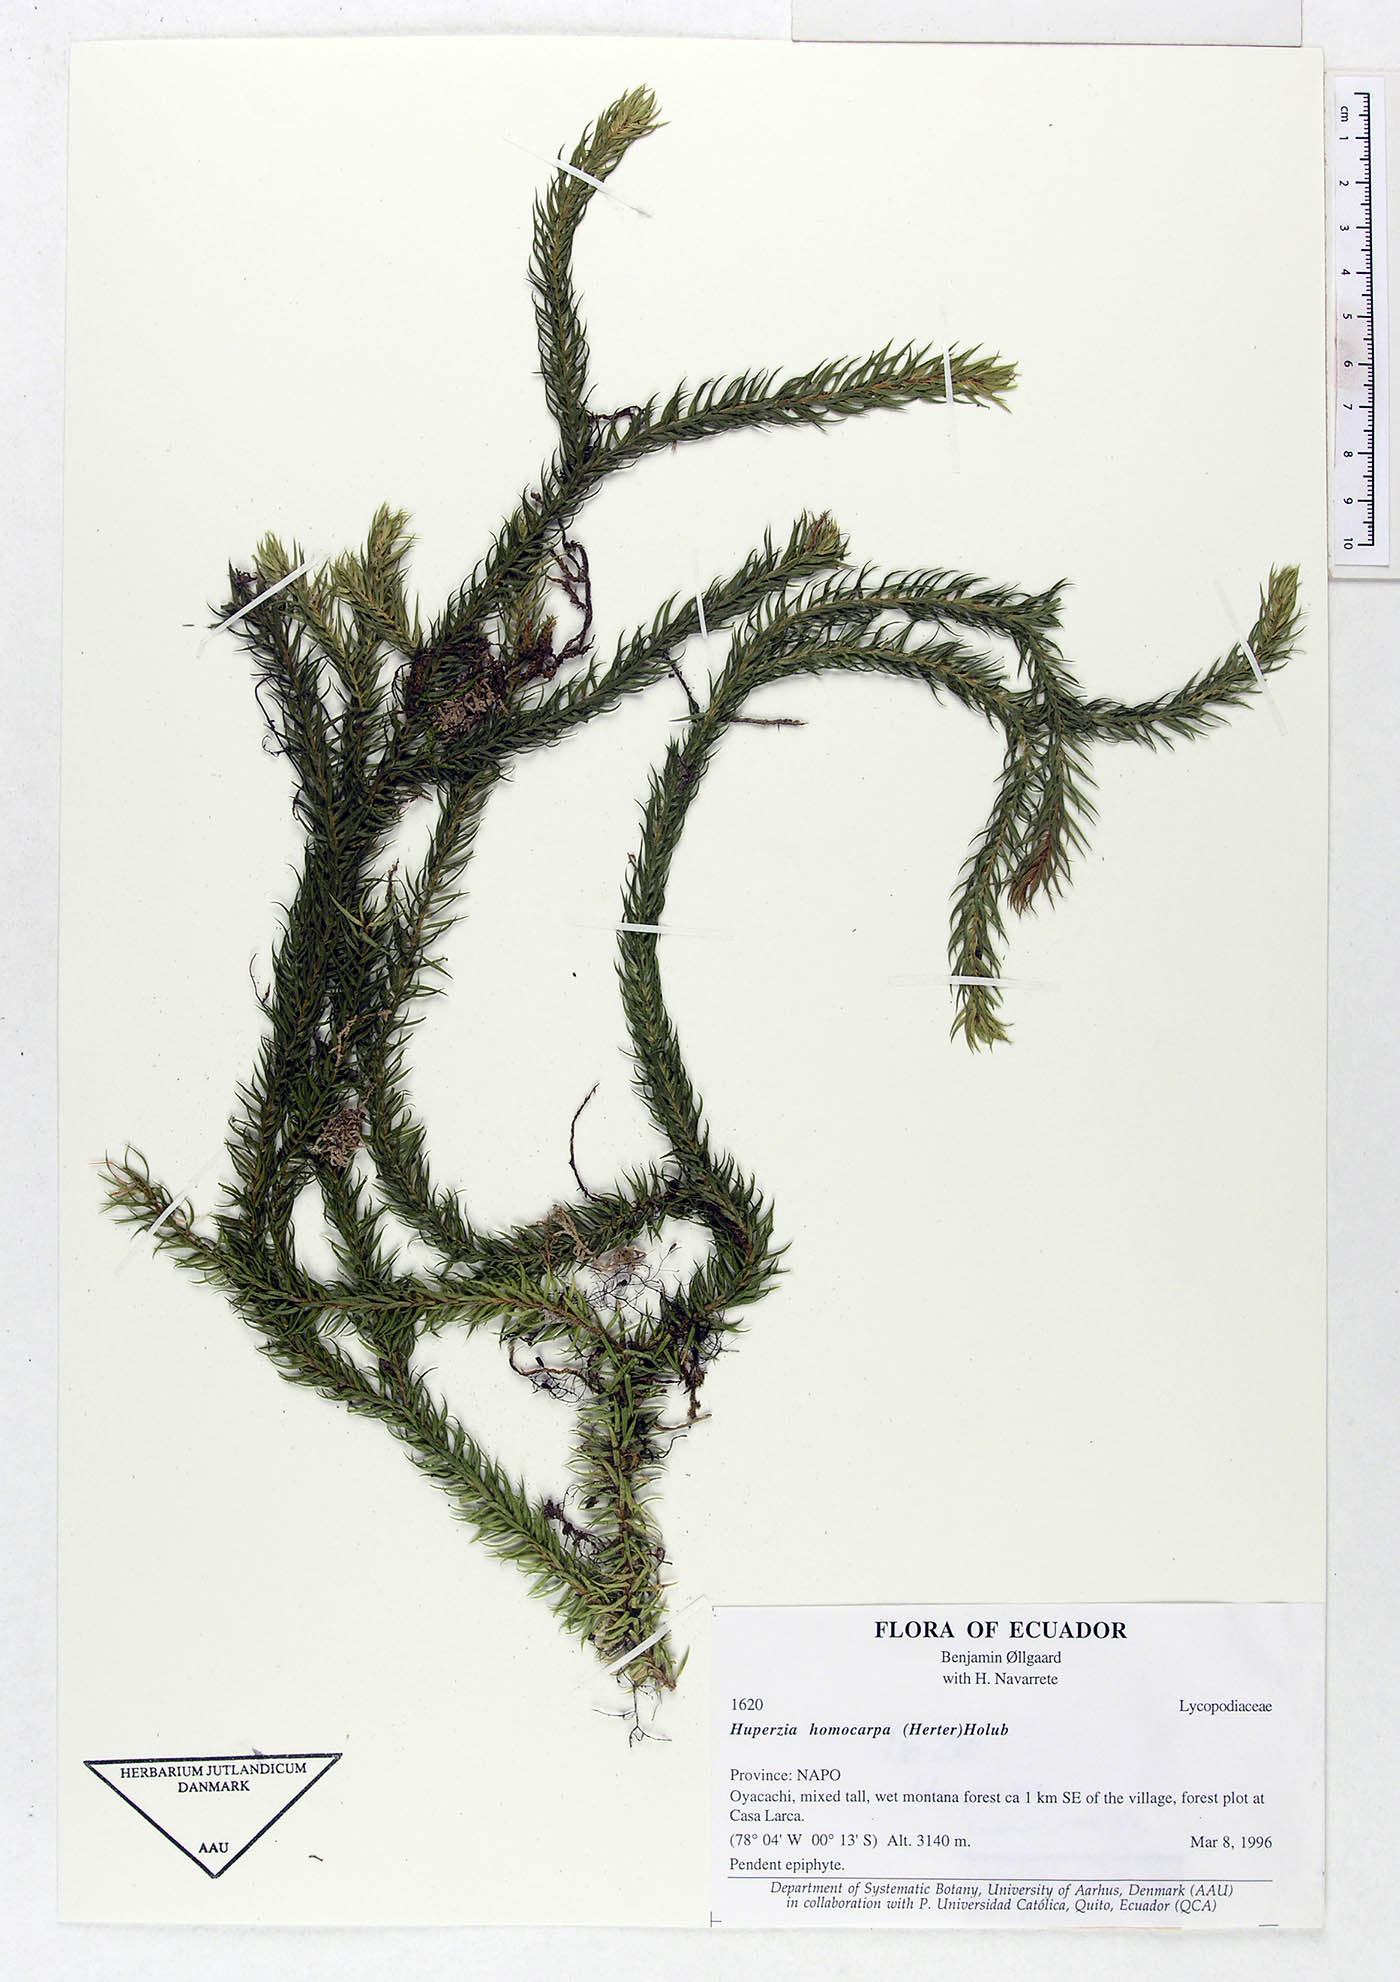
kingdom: Plantae
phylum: Tracheophyta
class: Lycopodiopsida
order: Lycopodiales
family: Lycopodiaceae
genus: Phlegmariurus
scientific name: Phlegmariurus homocarpus
